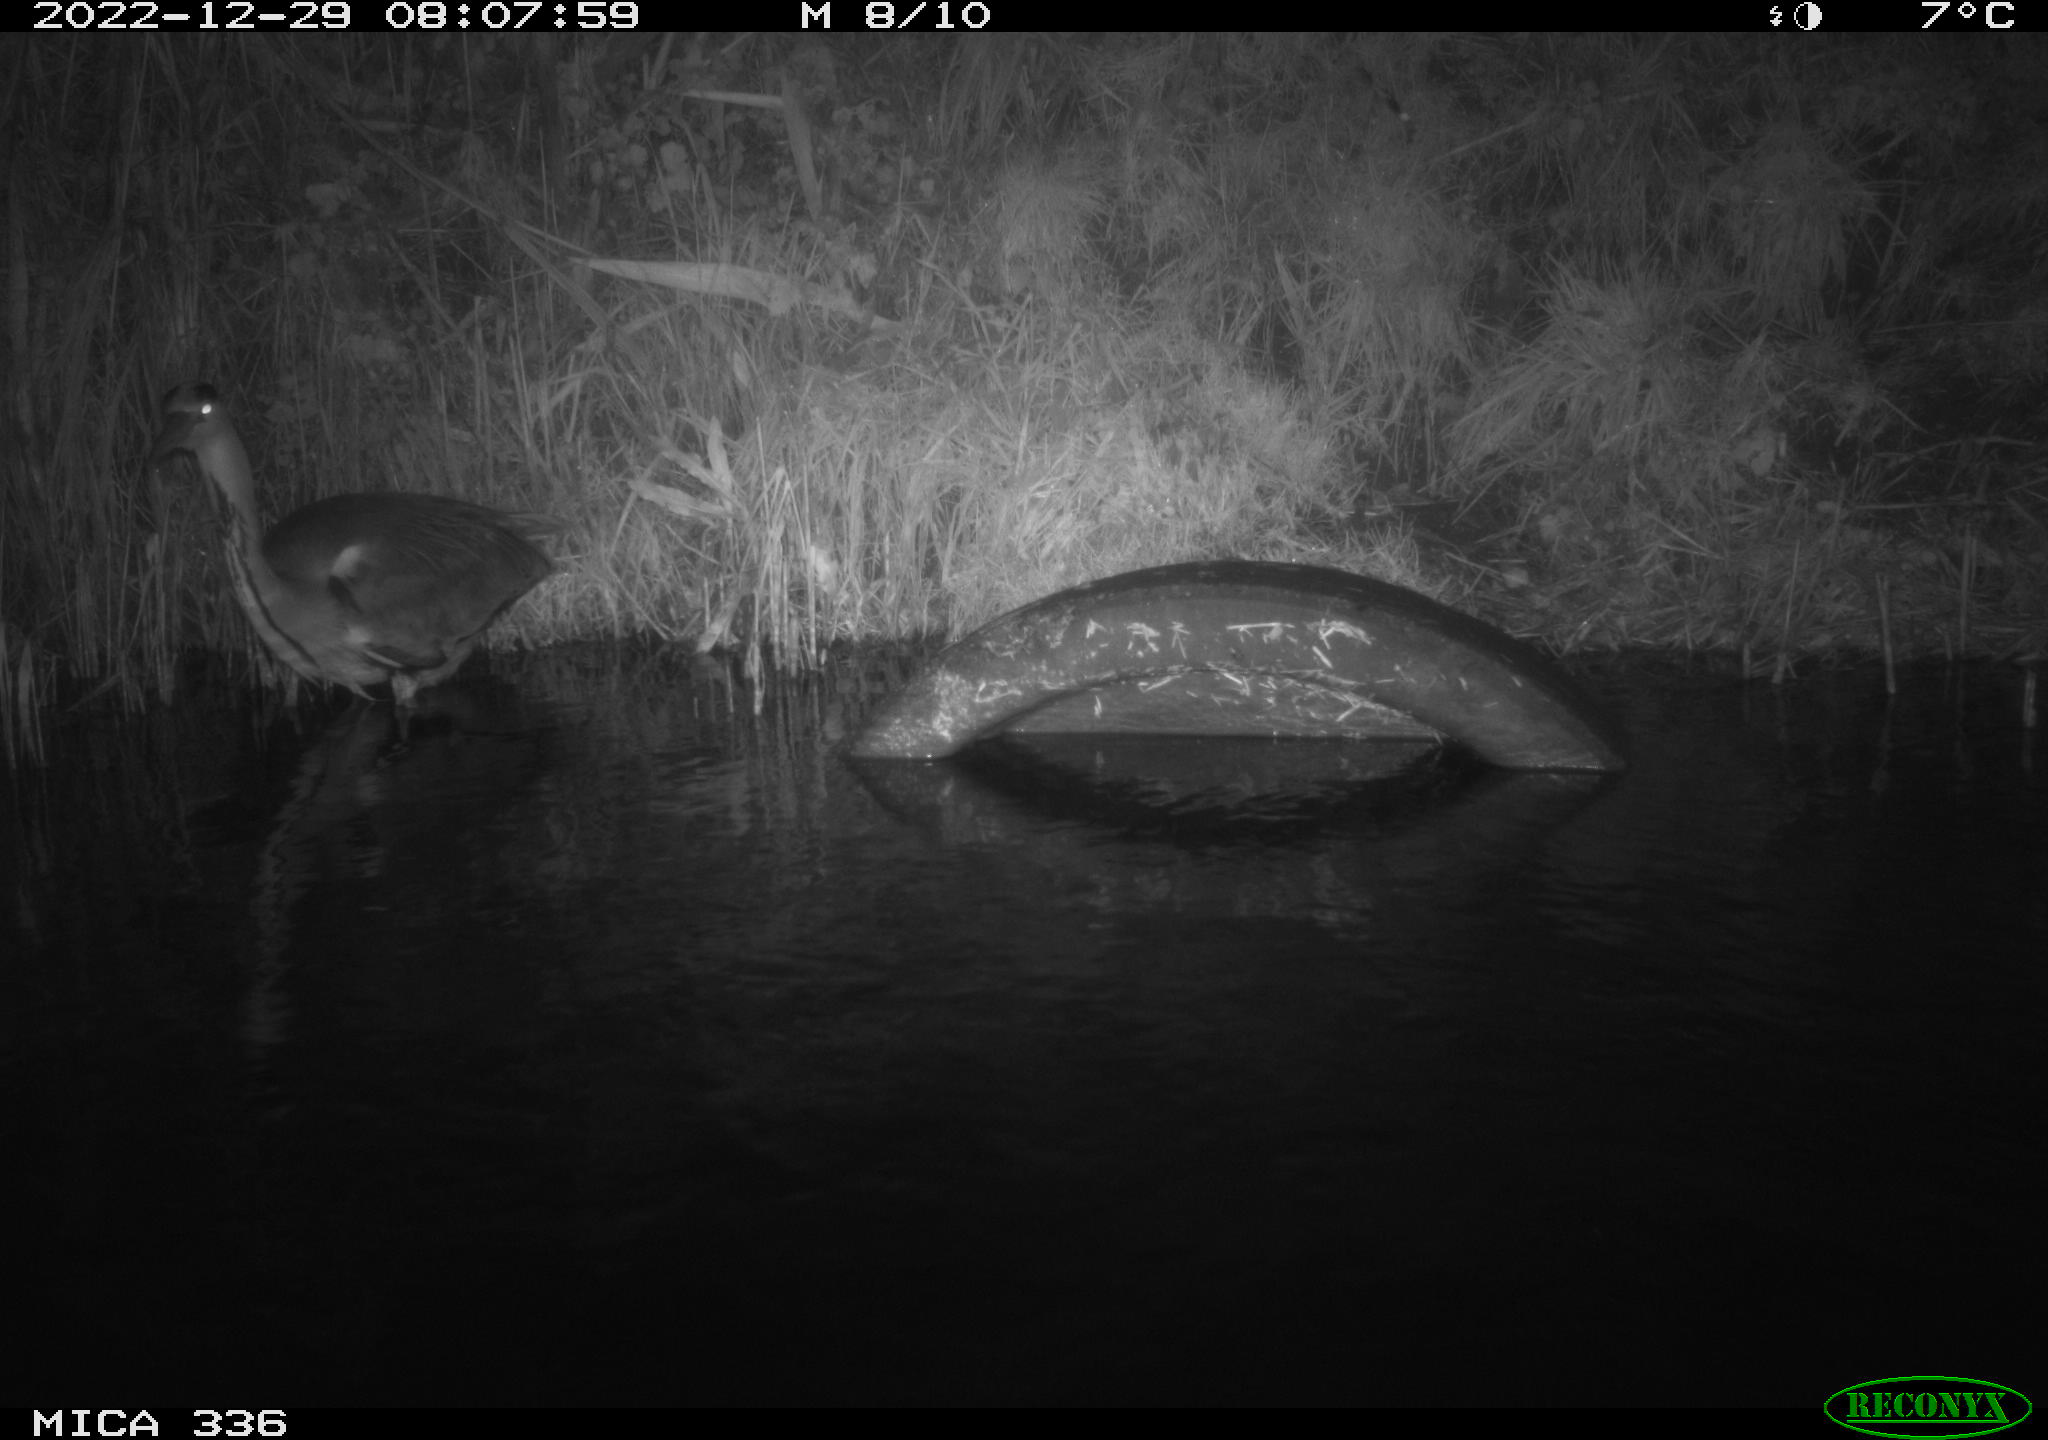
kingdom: Animalia
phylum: Chordata
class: Aves
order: Pelecaniformes
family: Ardeidae
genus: Ardea
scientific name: Ardea cinerea
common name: Grey heron
